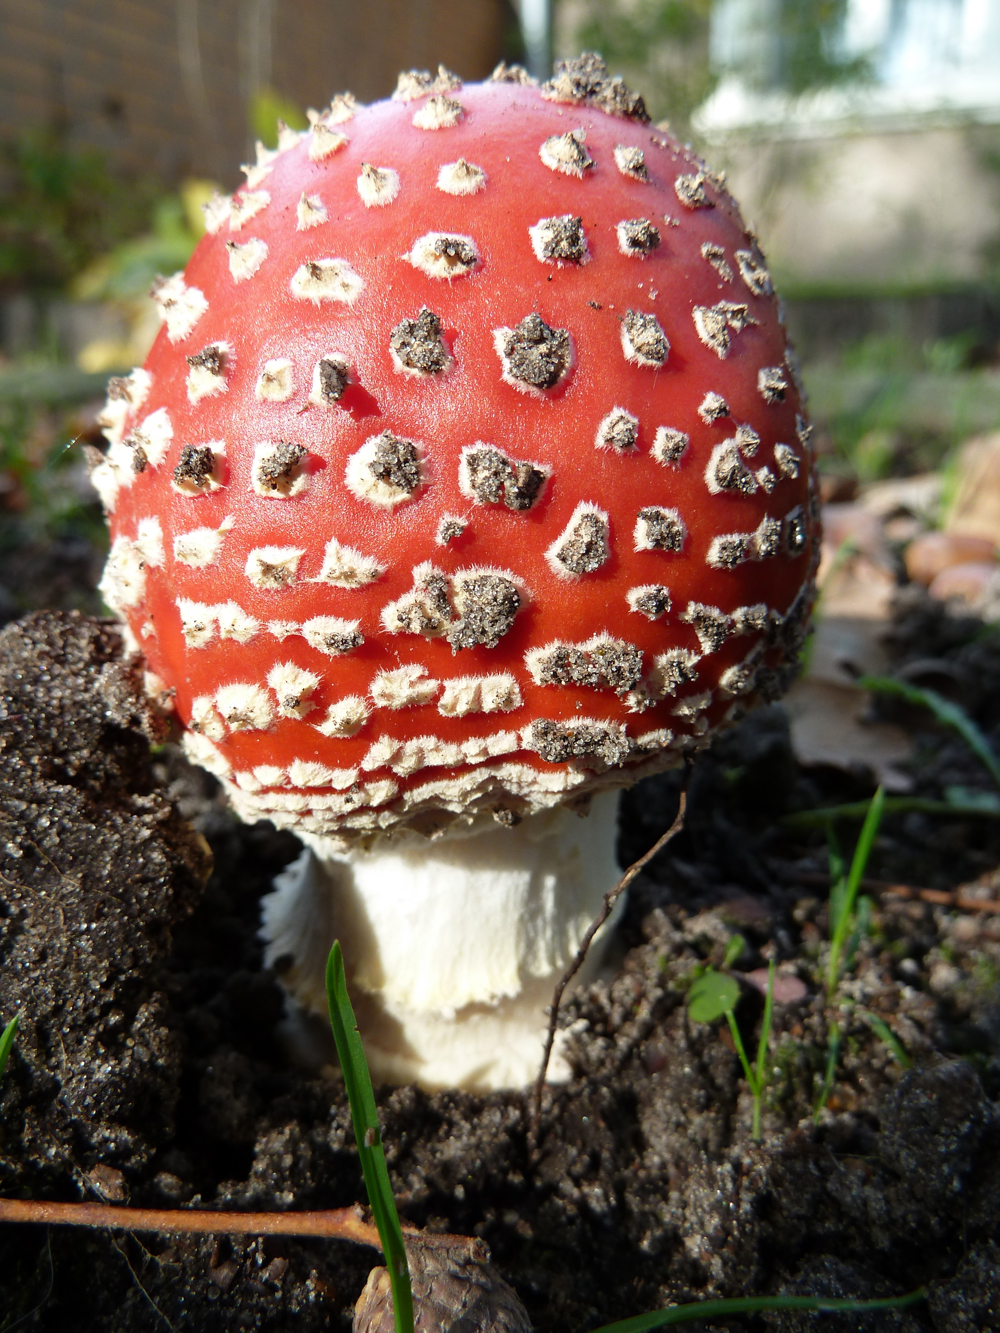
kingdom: Fungi
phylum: Basidiomycota
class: Agaricomycetes
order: Agaricales
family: Amanitaceae
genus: Amanita
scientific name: Amanita muscaria
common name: Fly agaric
